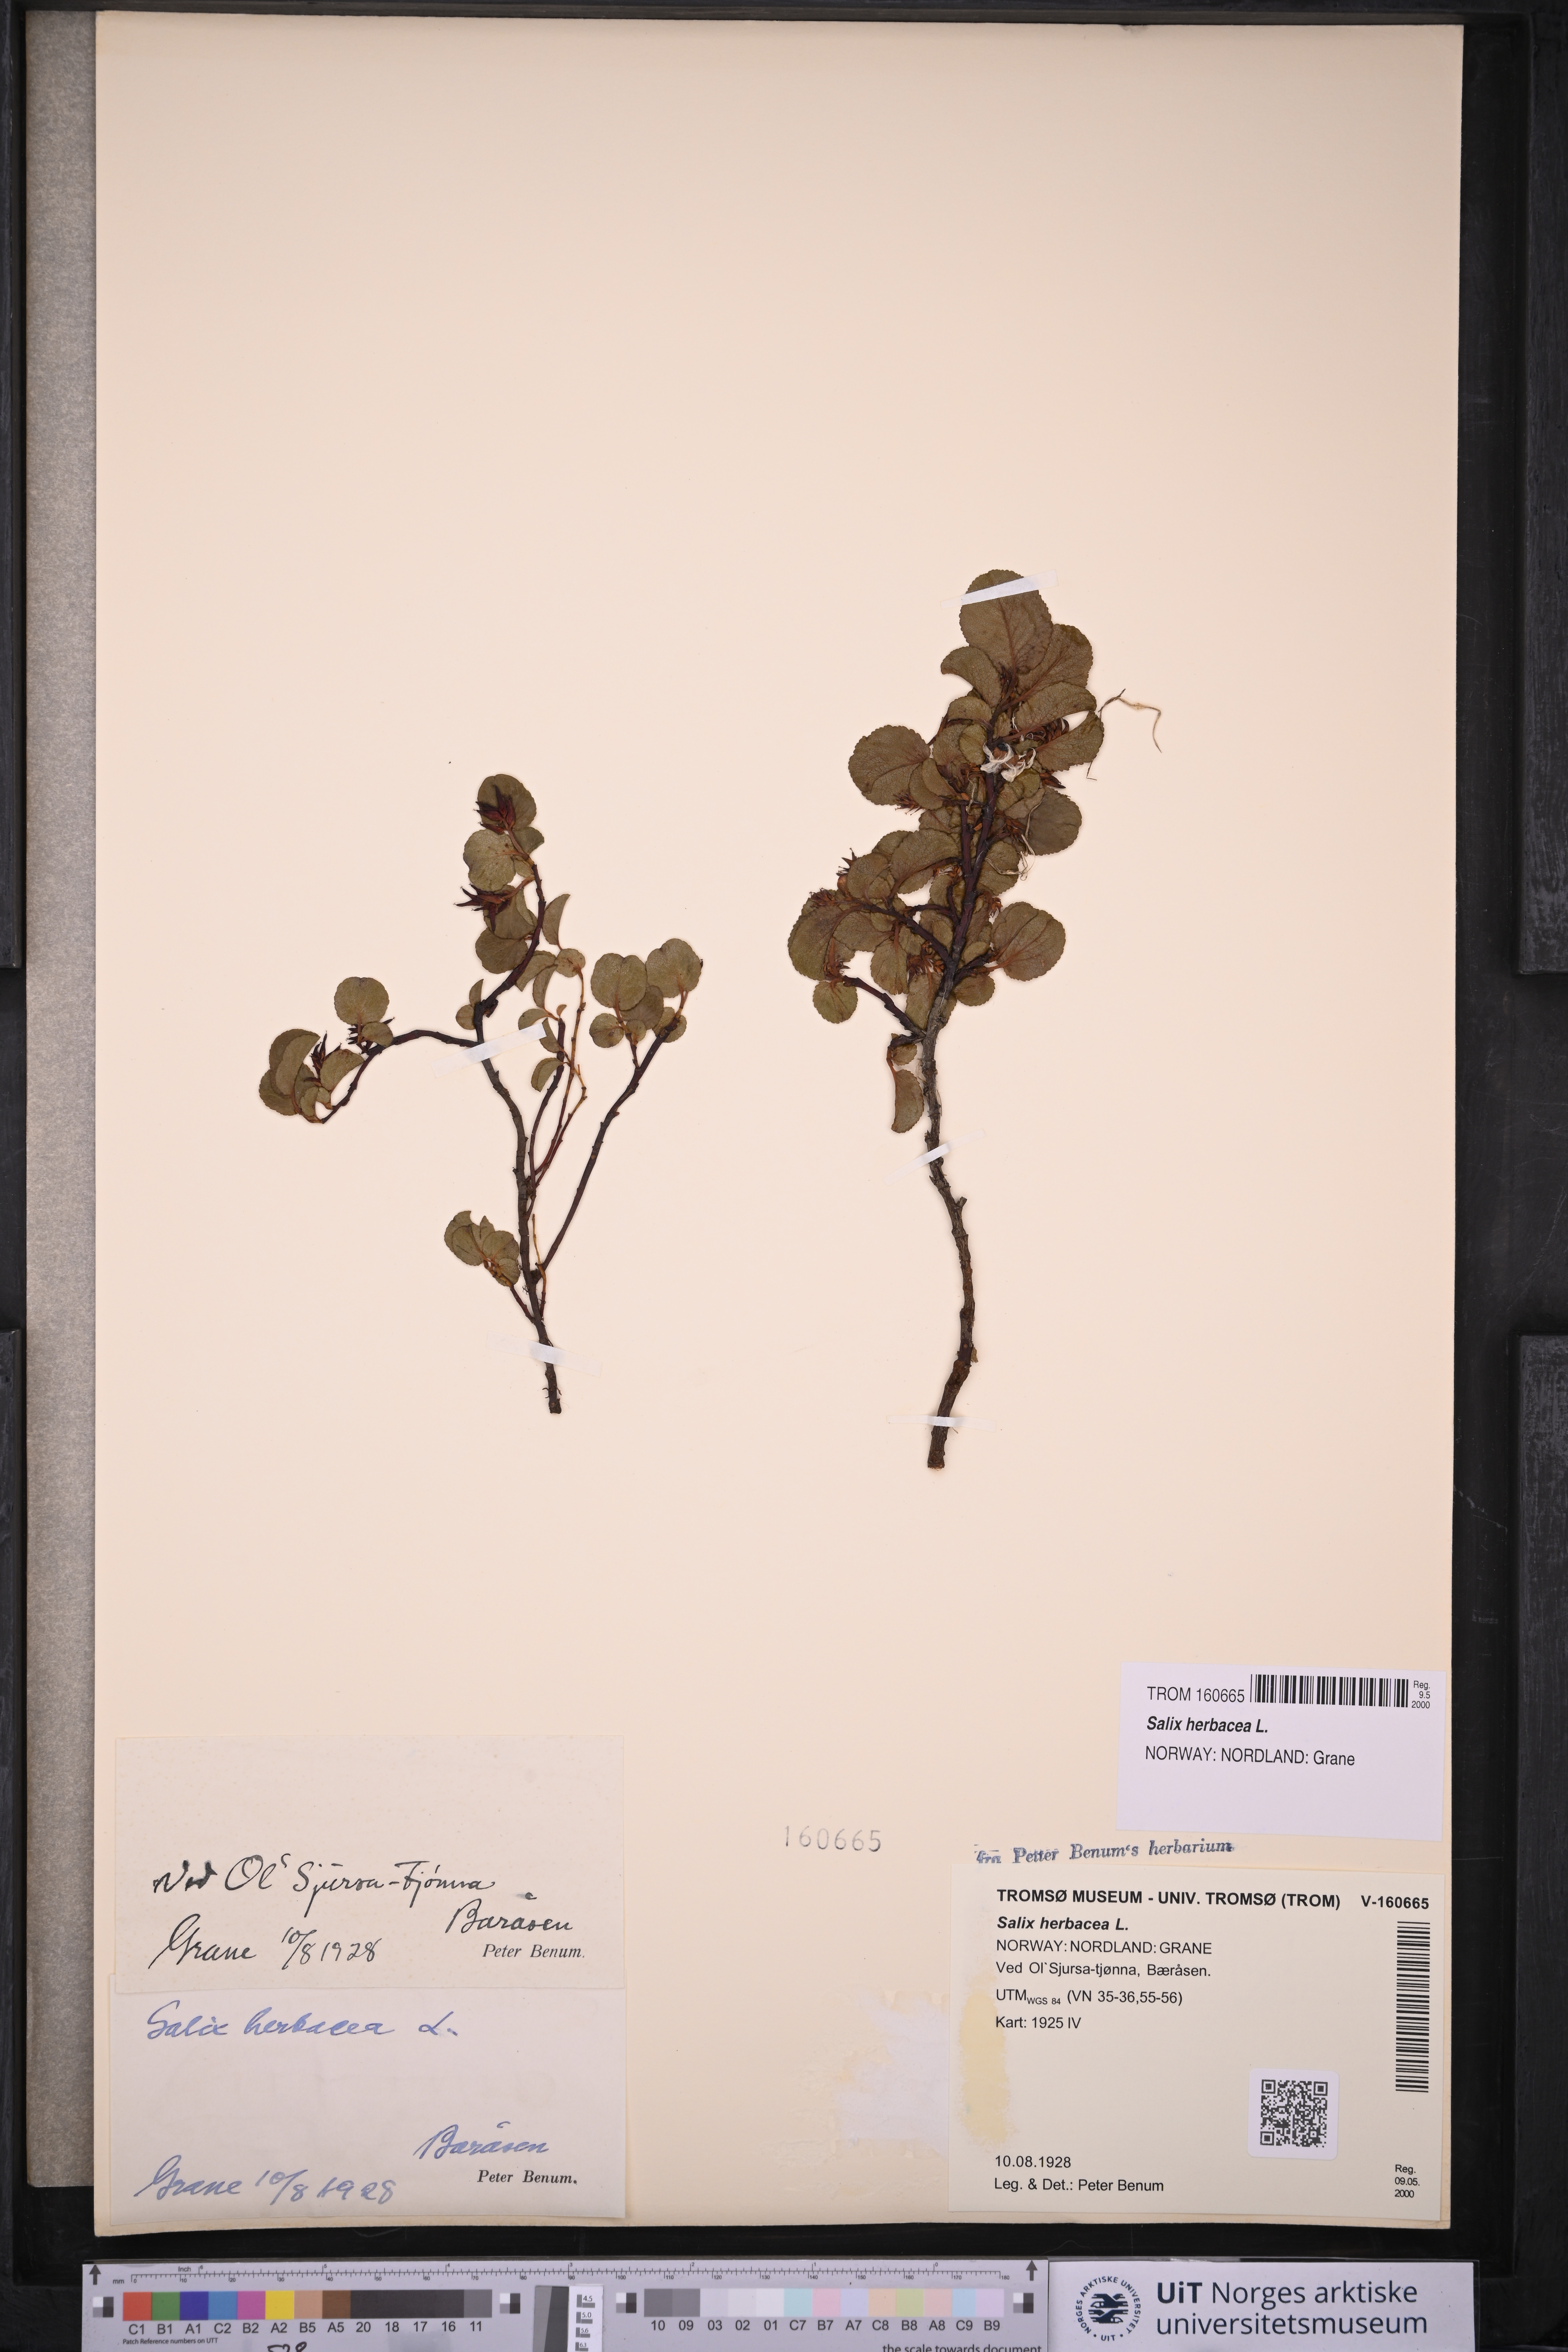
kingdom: Plantae
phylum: Tracheophyta
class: Magnoliopsida
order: Malpighiales
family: Salicaceae
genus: Salix
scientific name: Salix herbacea
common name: Dwarf willow
